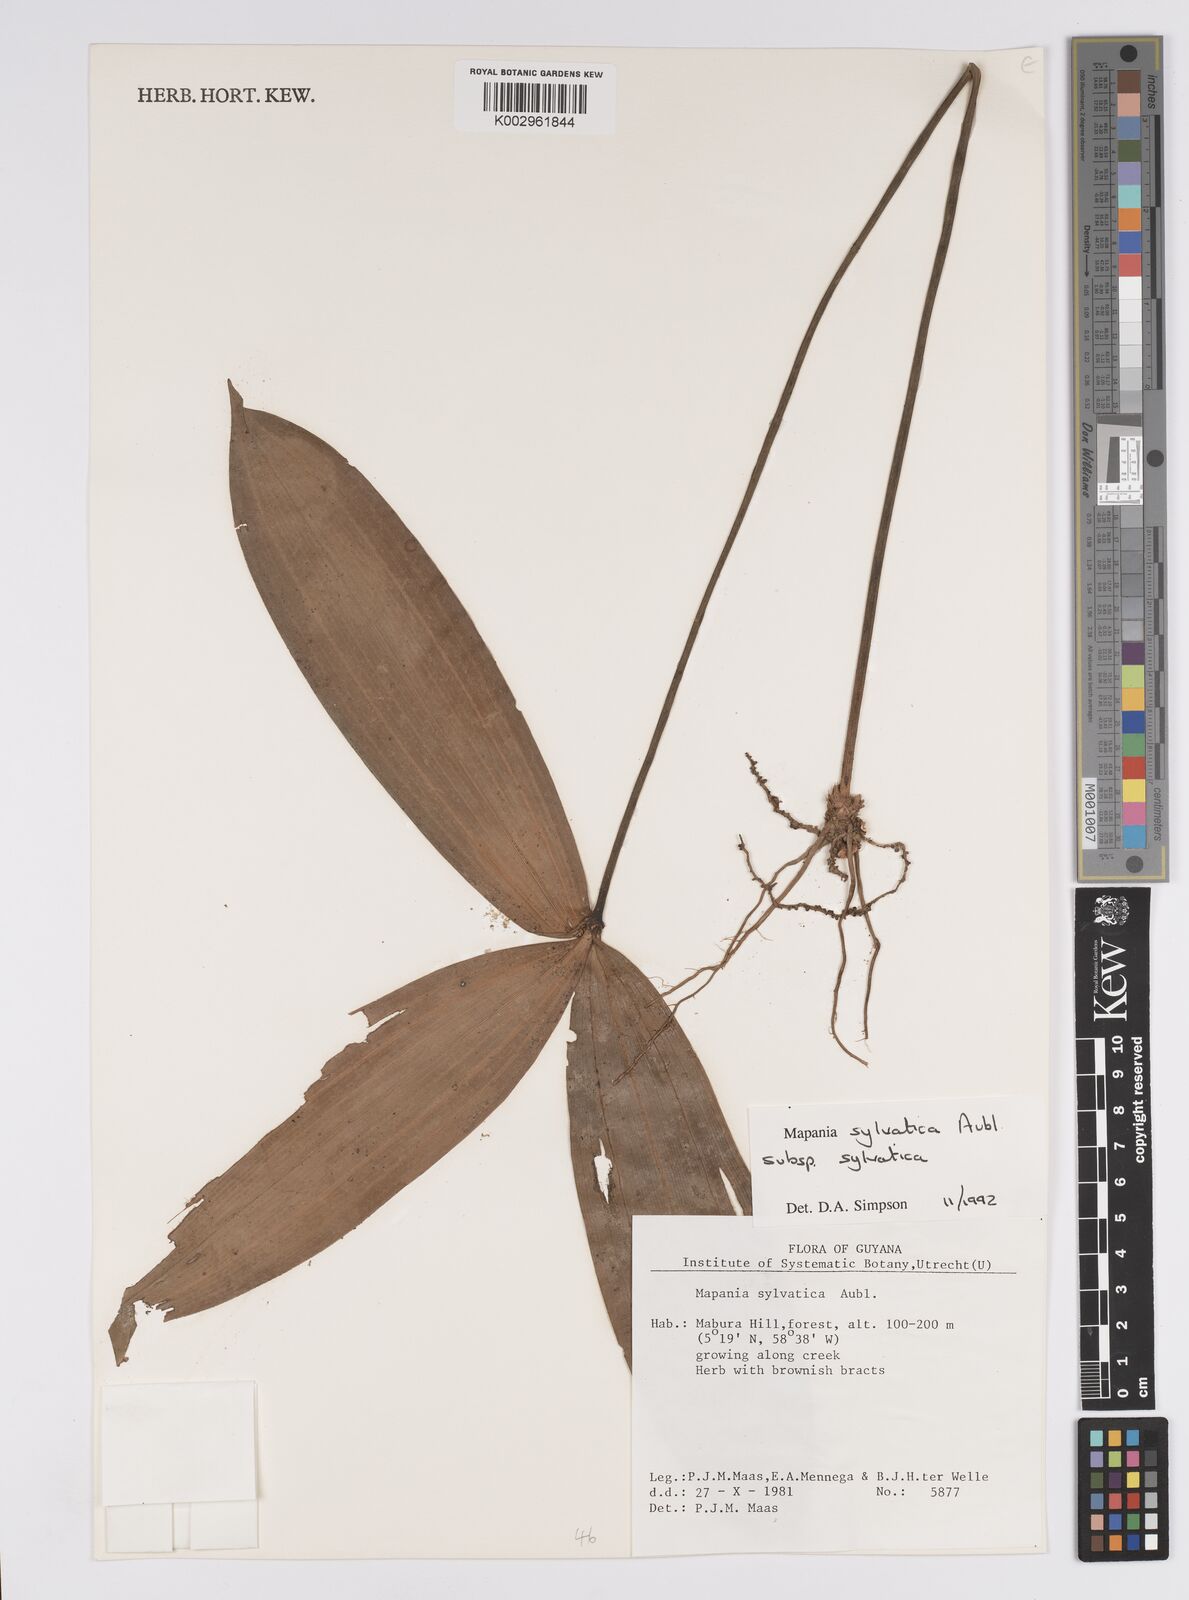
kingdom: Plantae
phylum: Tracheophyta
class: Liliopsida
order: Poales
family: Cyperaceae
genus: Mapania
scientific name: Mapania sylvatica
